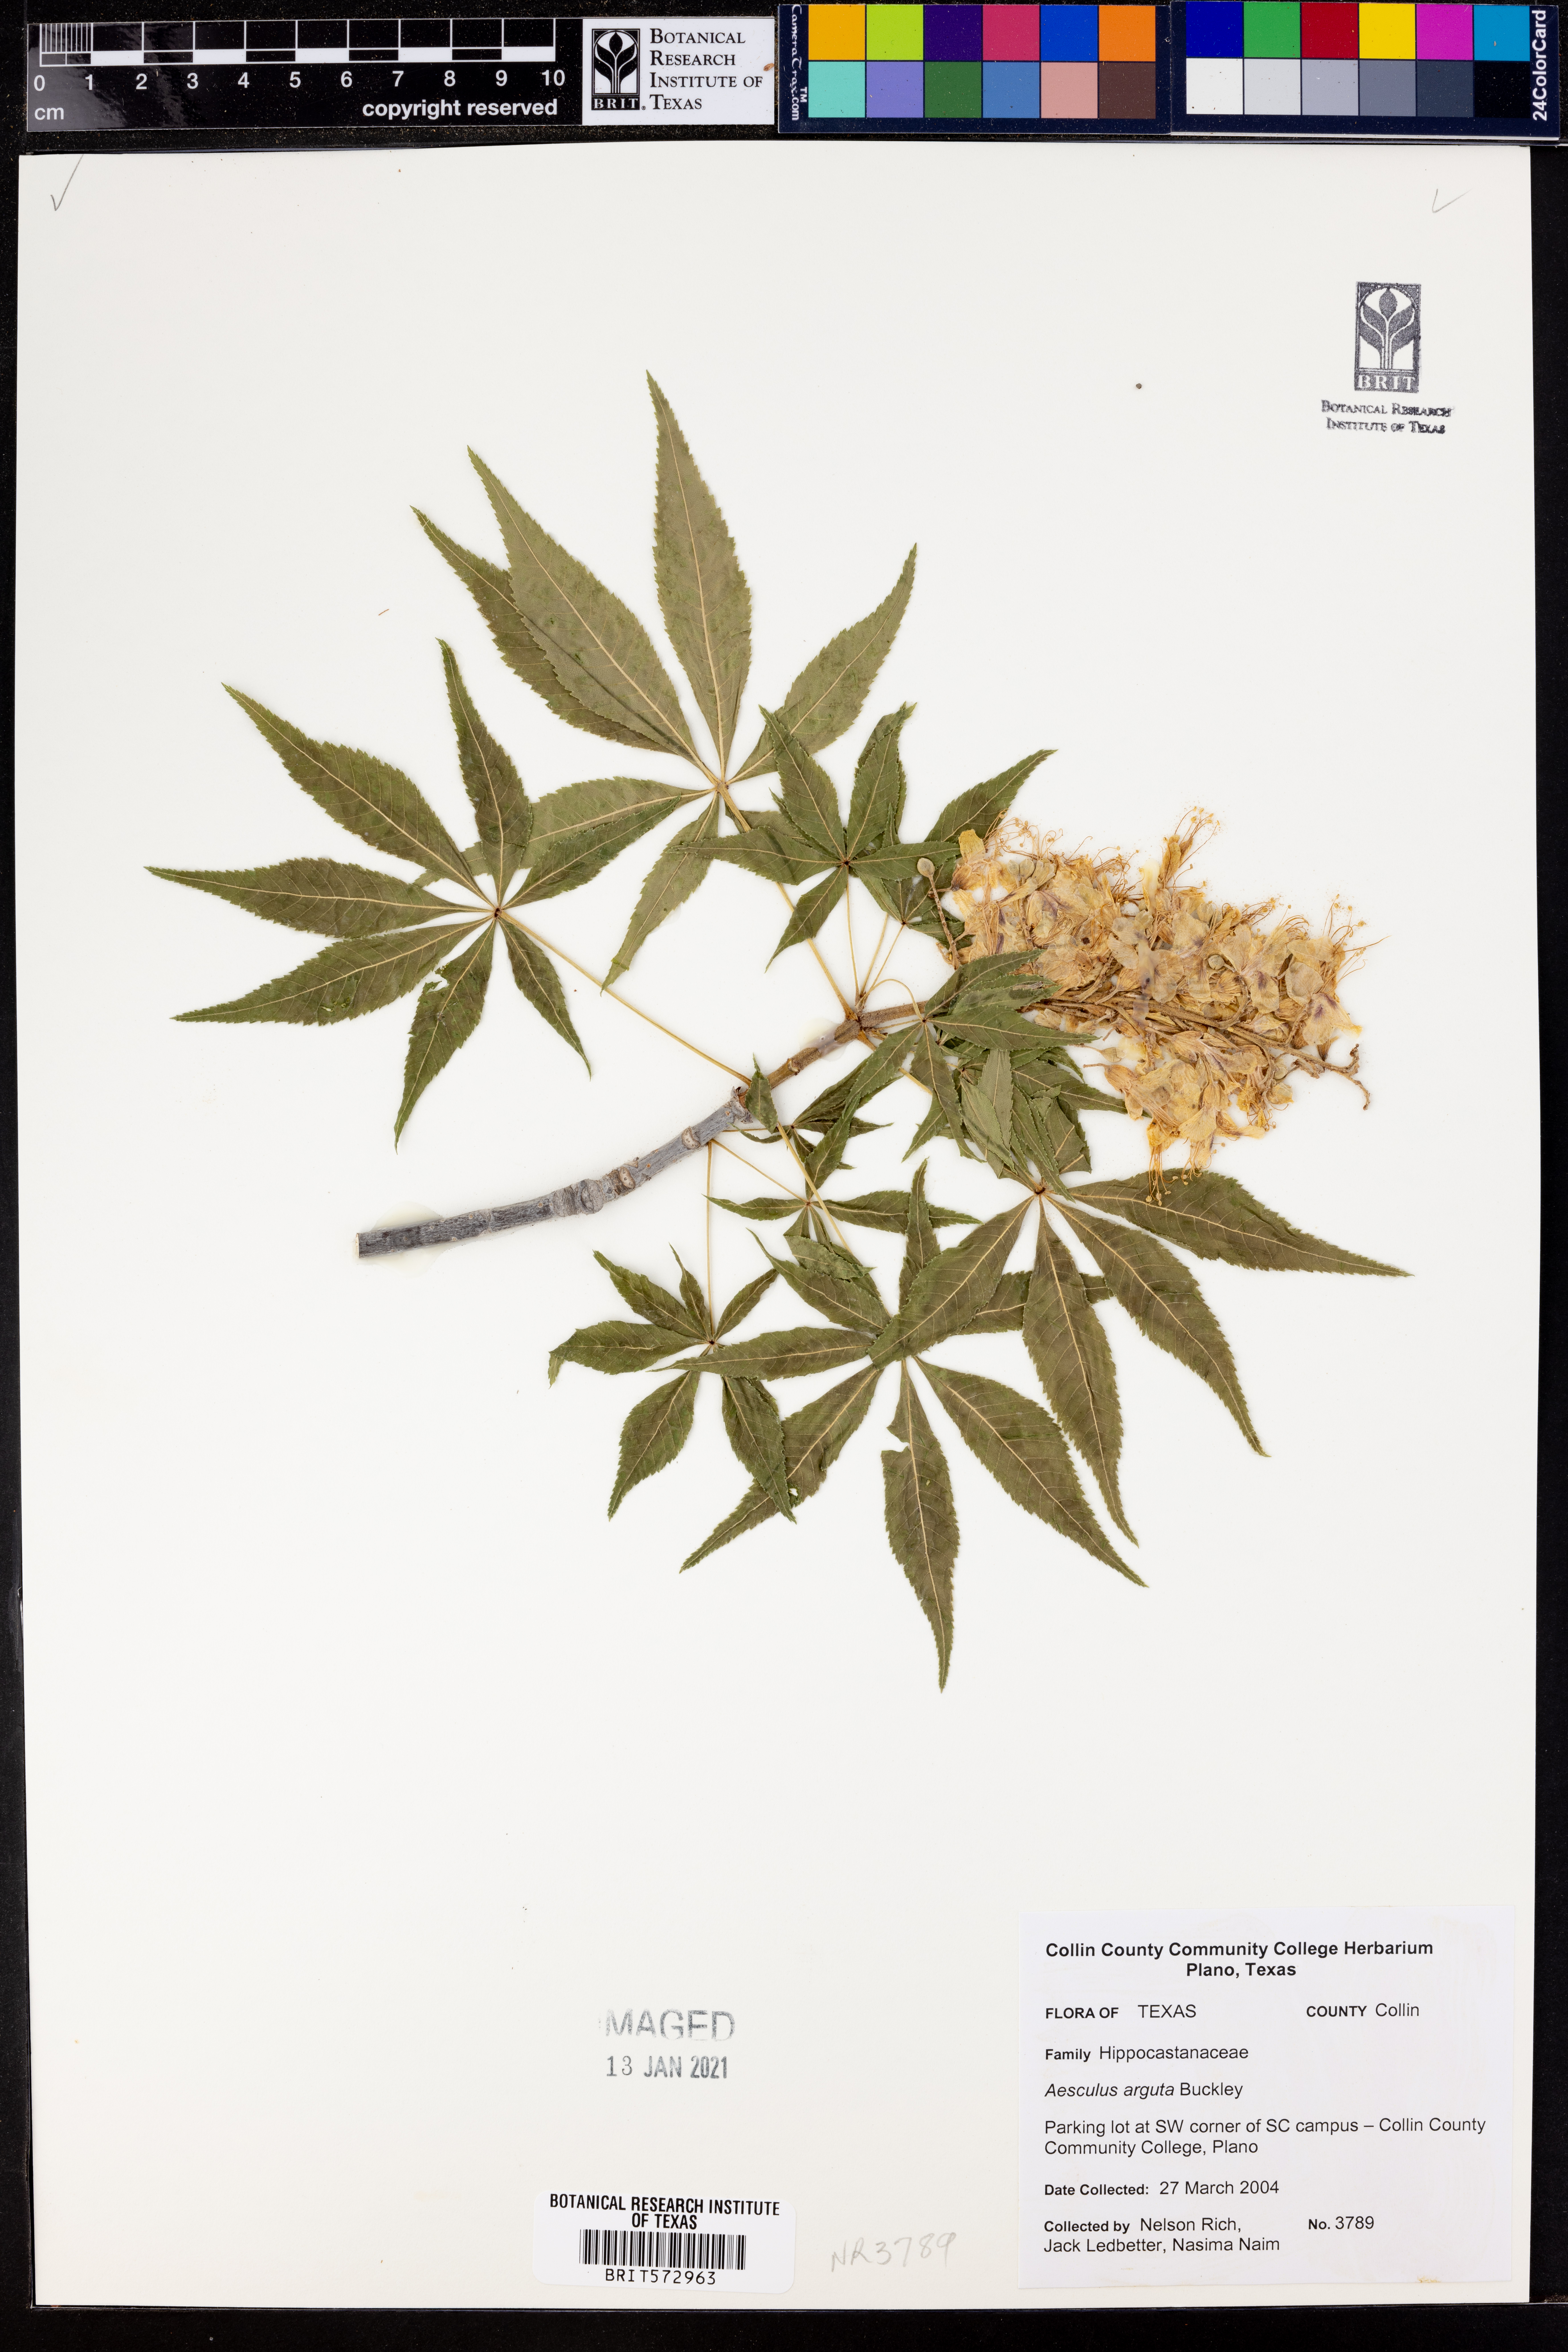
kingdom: Plantae
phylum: Tracheophyta
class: Magnoliopsida
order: Sapindales
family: Sapindaceae
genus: Aesculus
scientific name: Aesculus glabra
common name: Ohio buckeye
